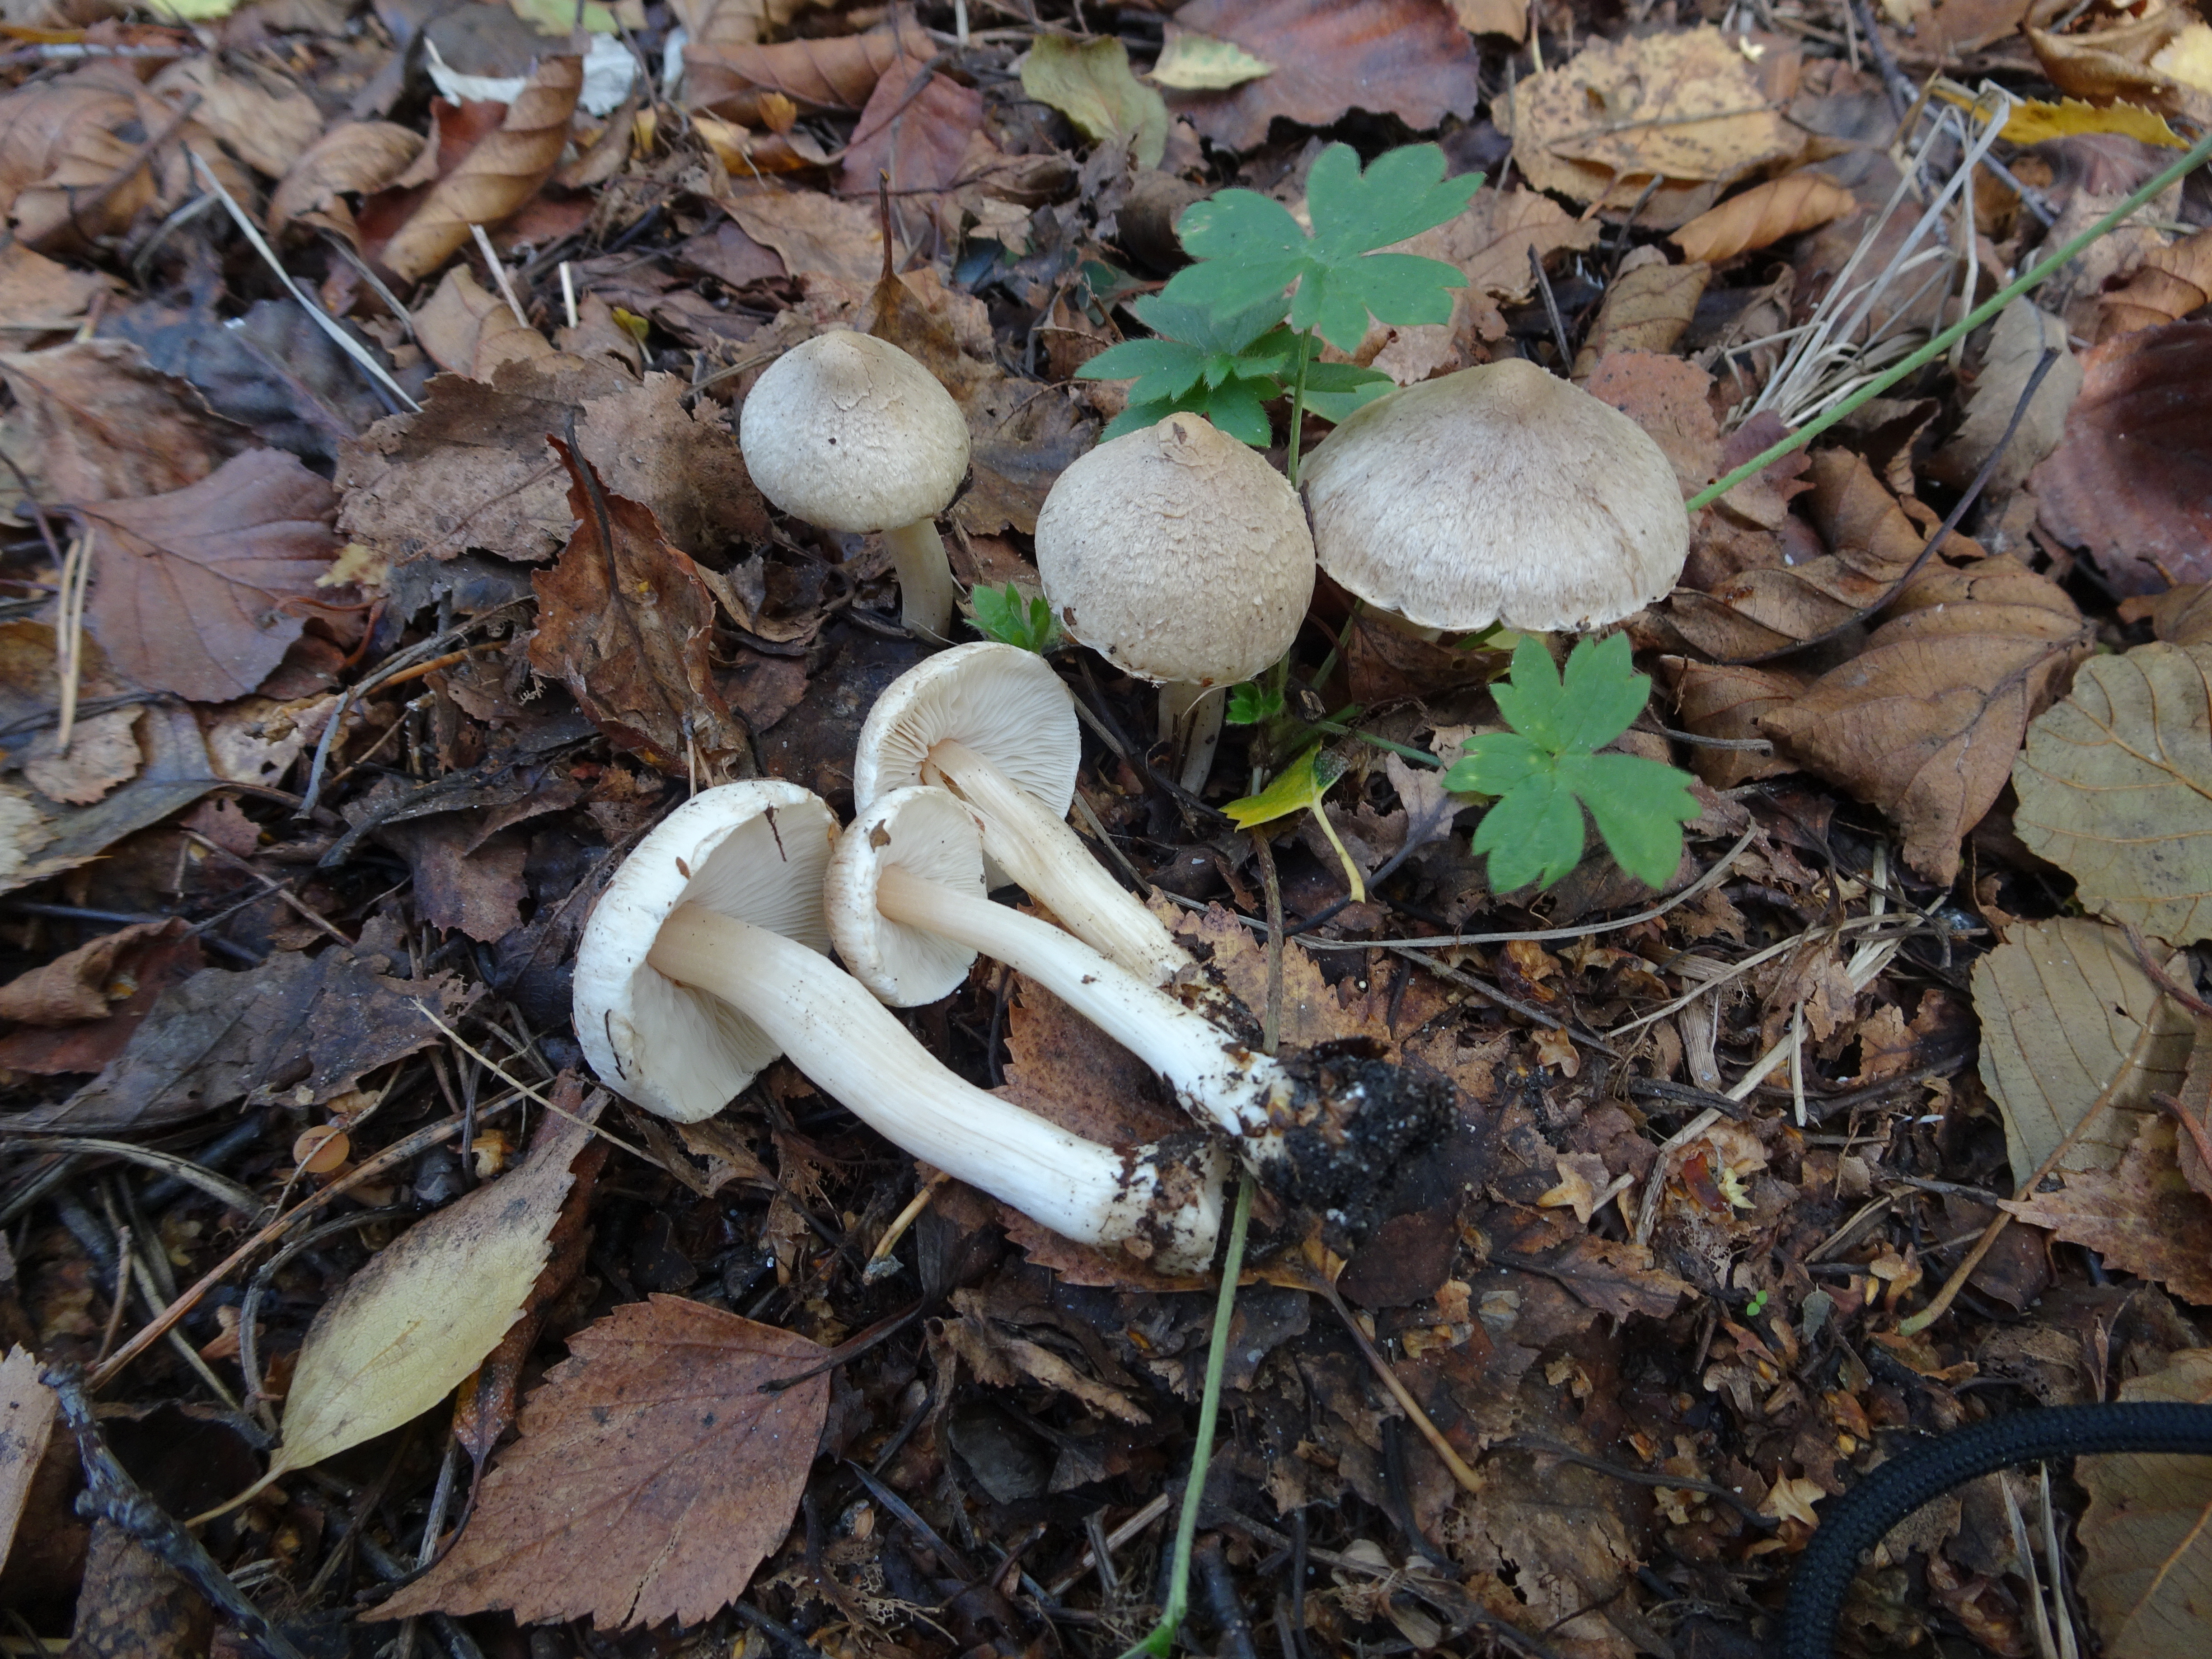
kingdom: Fungi
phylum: Basidiomycota
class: Agaricomycetes
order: Agaricales
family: Inocybaceae
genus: Inocybe
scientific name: Inocybe
